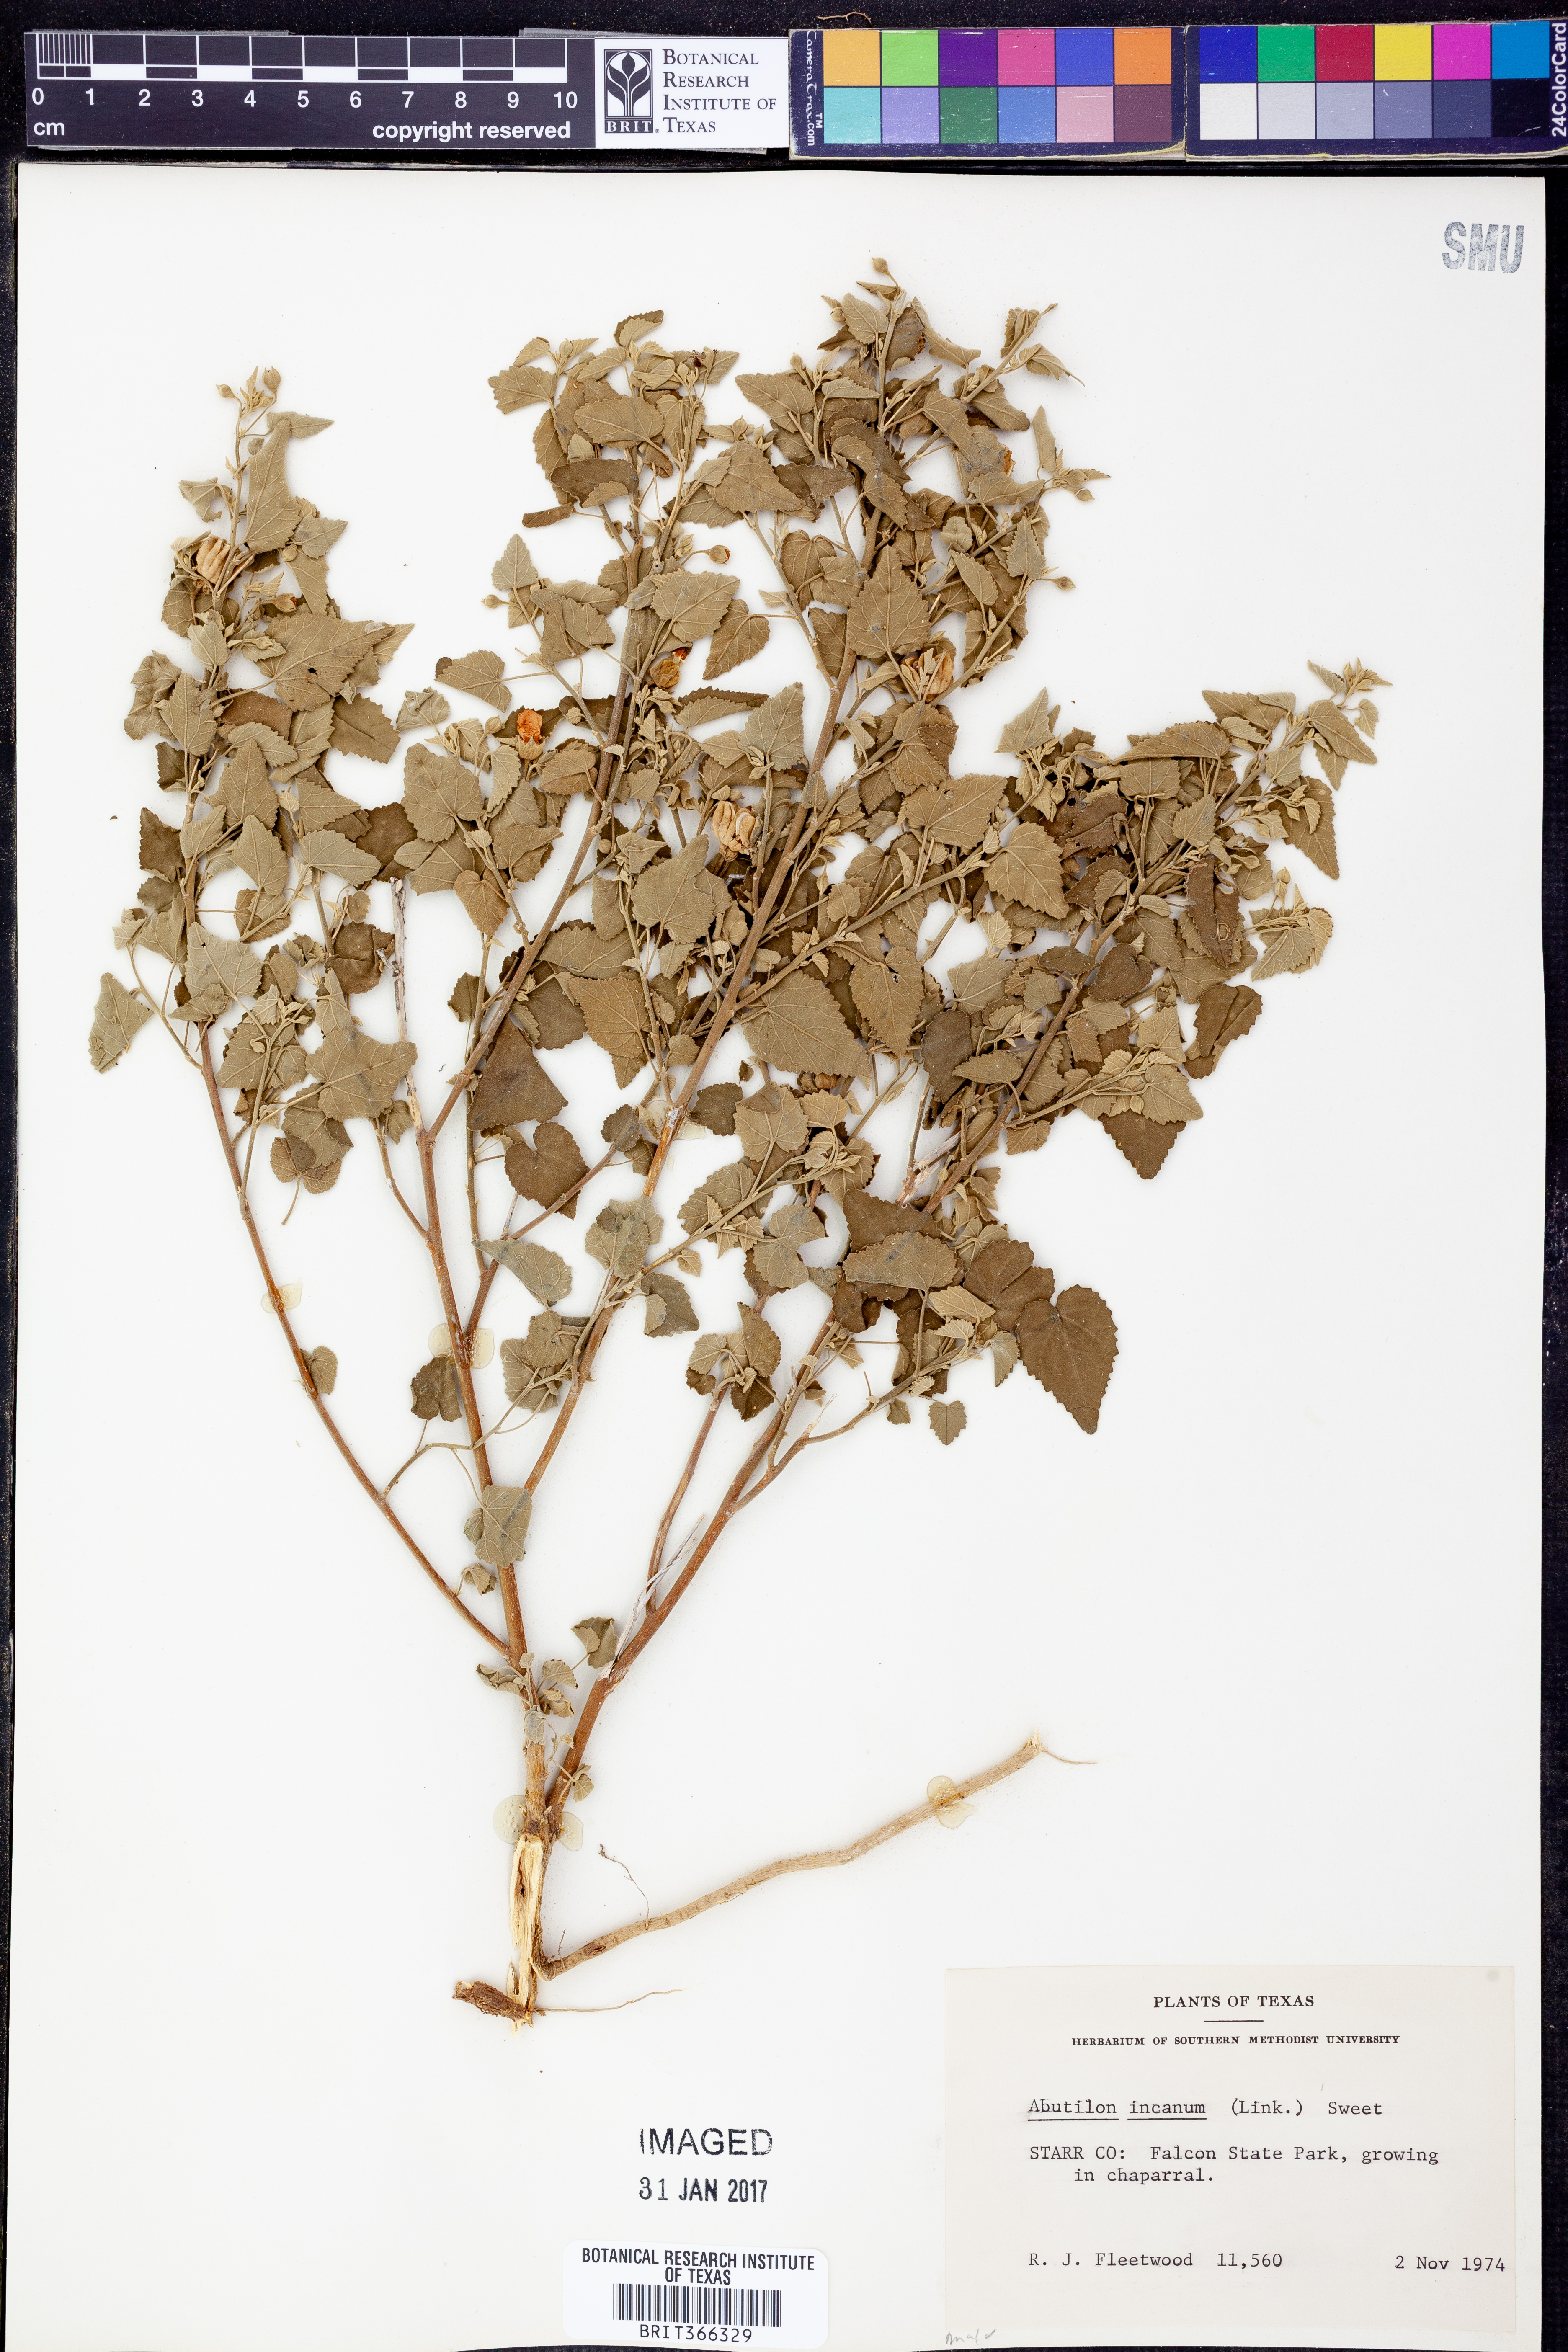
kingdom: Plantae
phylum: Tracheophyta
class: Magnoliopsida
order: Malvales
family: Malvaceae
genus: Abutilon
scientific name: Abutilon incanum
